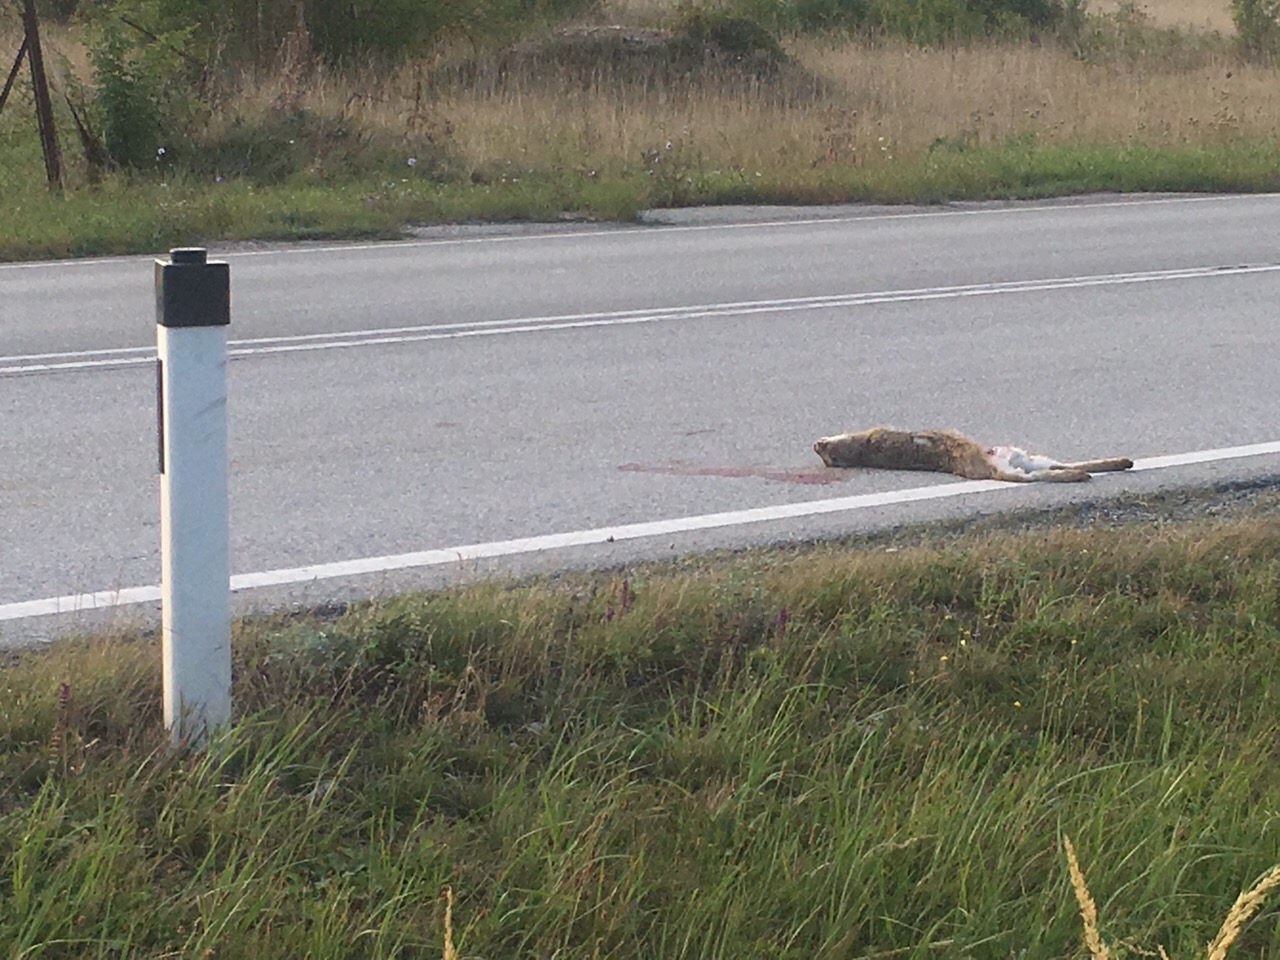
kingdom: Animalia
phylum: Chordata
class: Mammalia
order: Lagomorpha
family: Leporidae
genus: Lepus
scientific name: Lepus europaeus
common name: European hare
